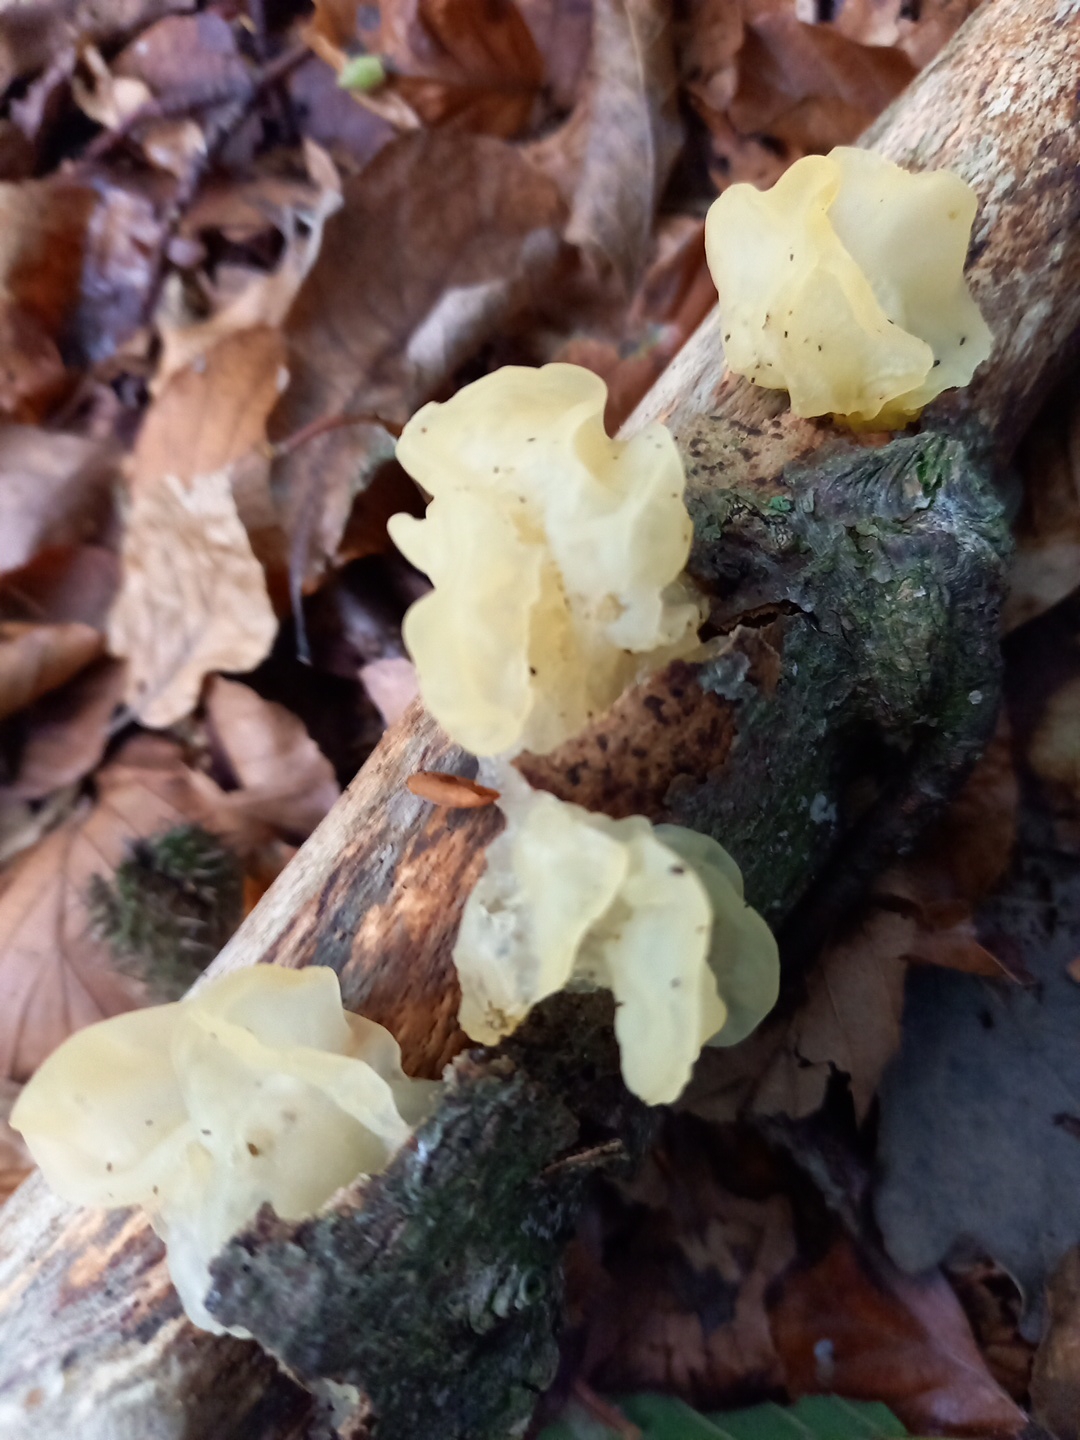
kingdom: Fungi
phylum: Basidiomycota
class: Tremellomycetes
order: Tremellales
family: Tremellaceae
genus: Tremella
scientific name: Tremella mesenterica
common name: gul bævresvamp
